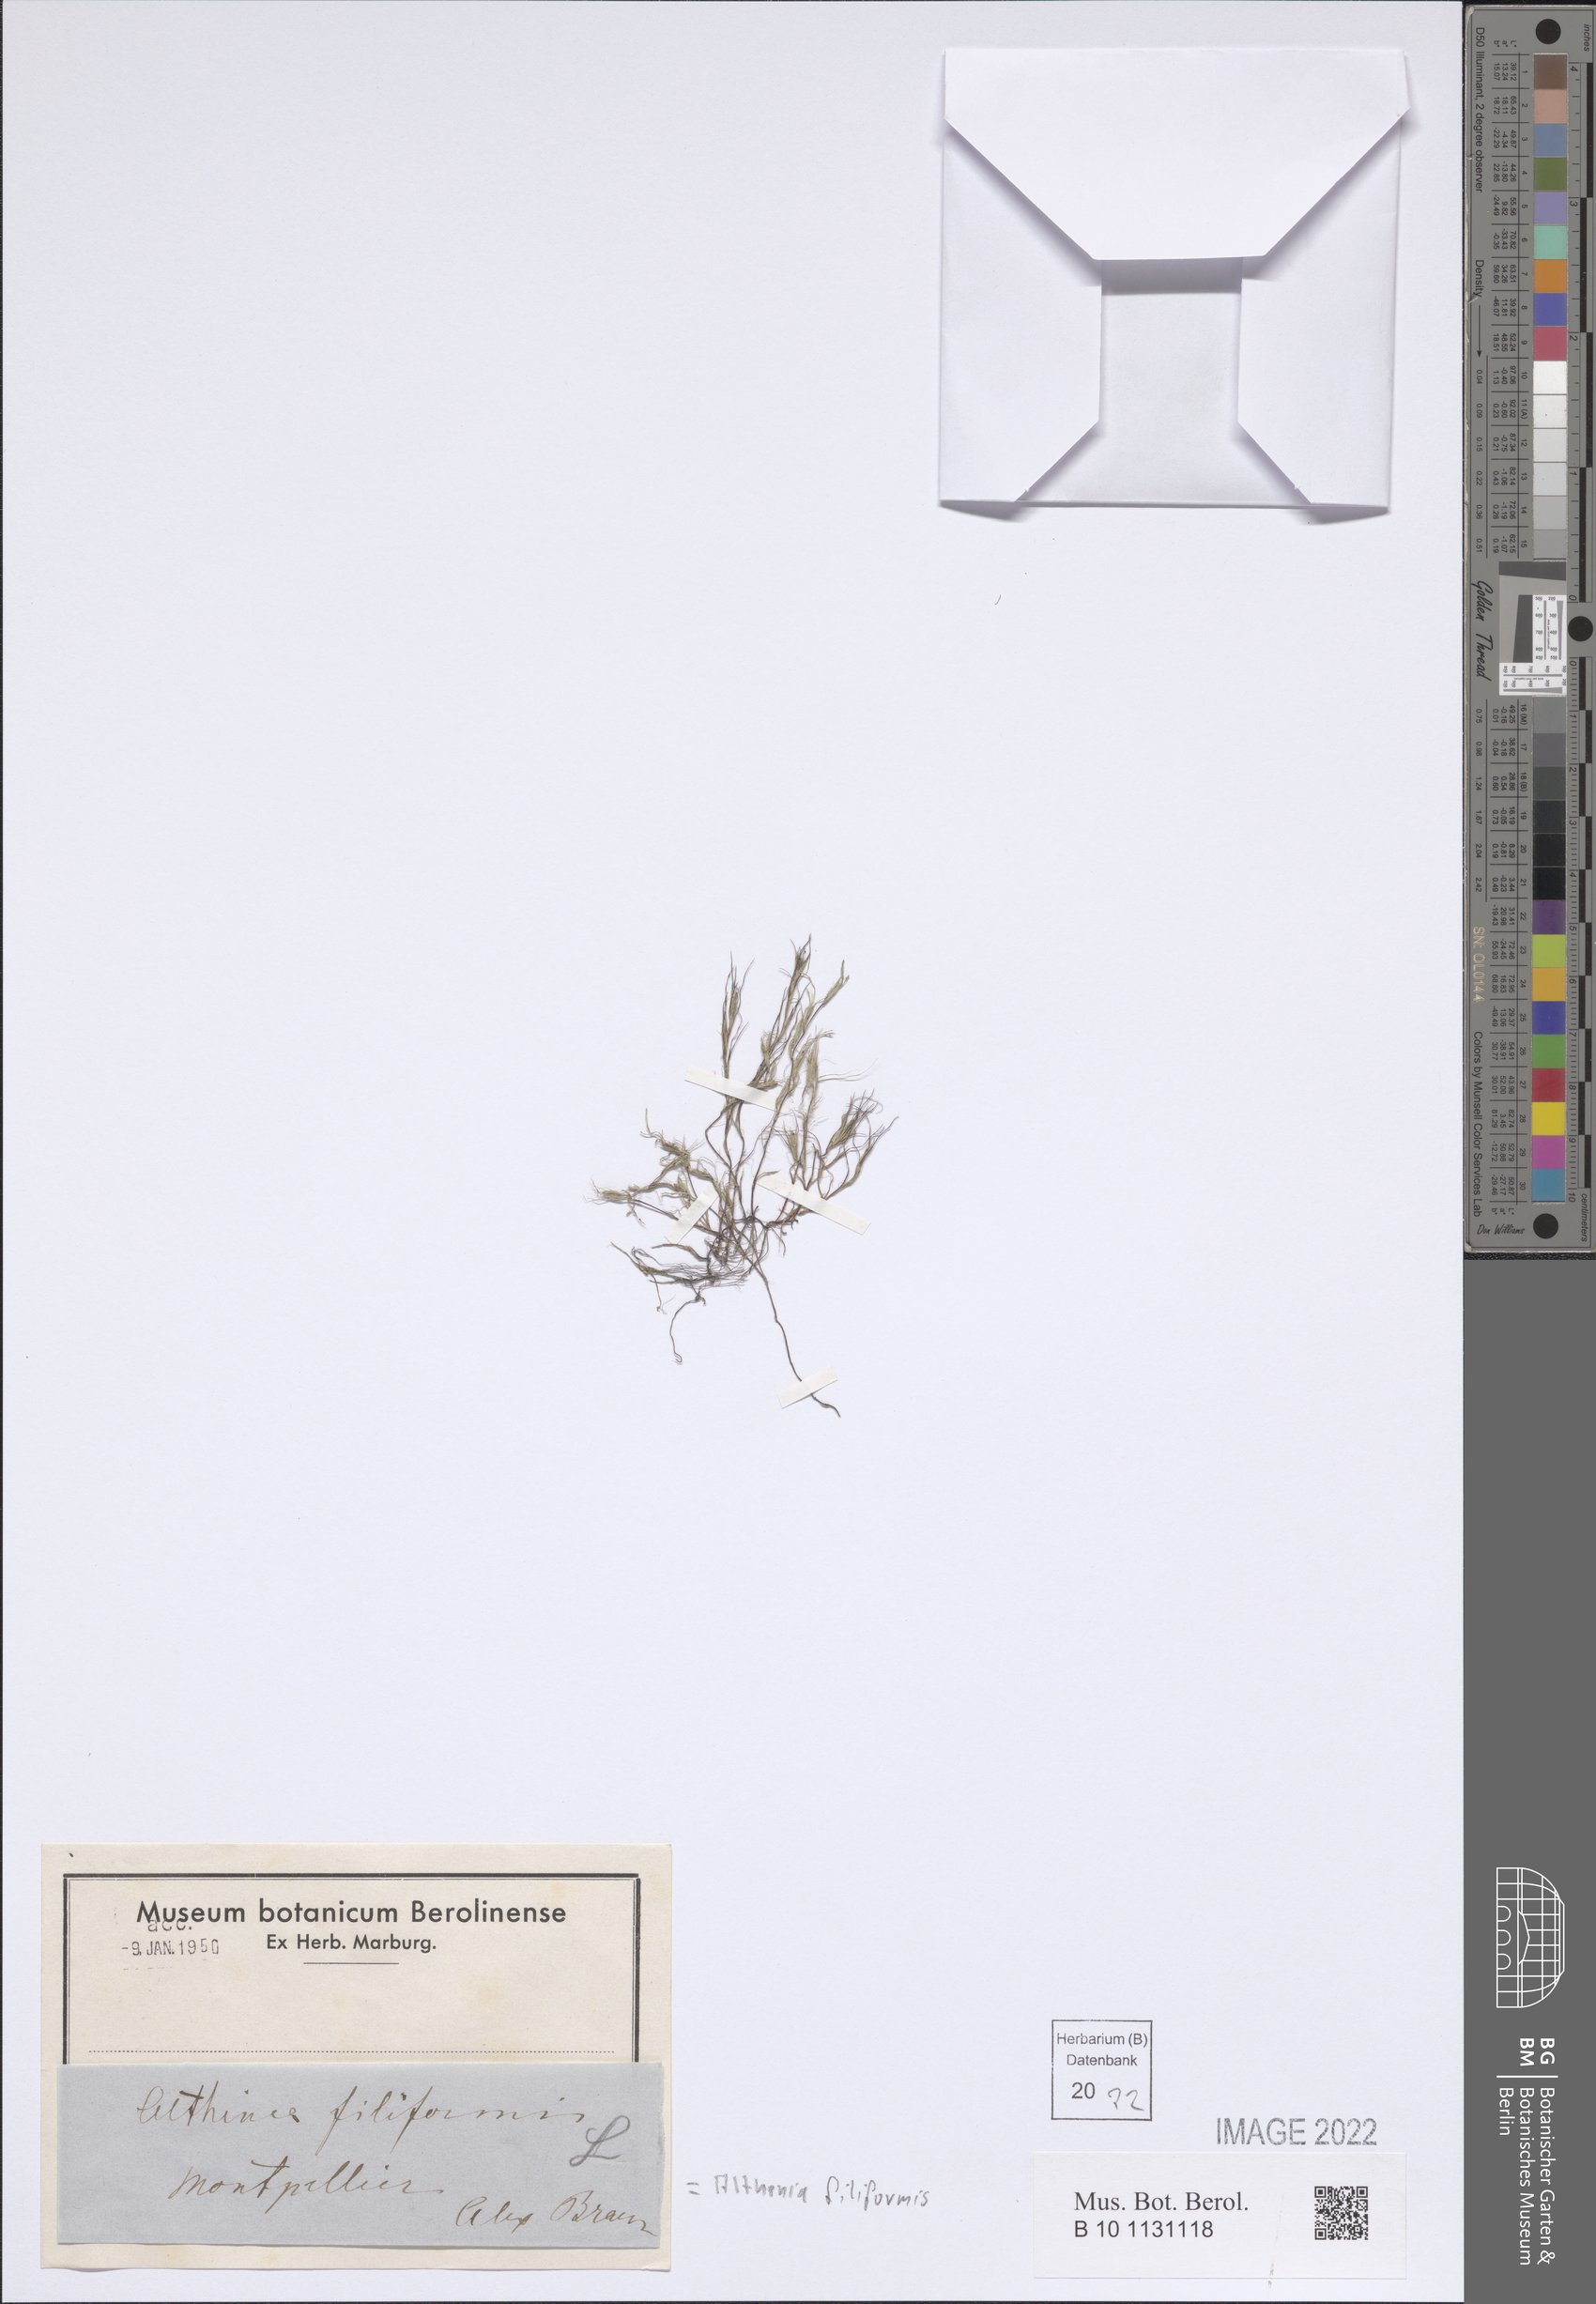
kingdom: Plantae
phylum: Tracheophyta
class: Liliopsida
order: Alismatales
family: Potamogetonaceae
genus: Althenia
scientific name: Althenia filiformis
